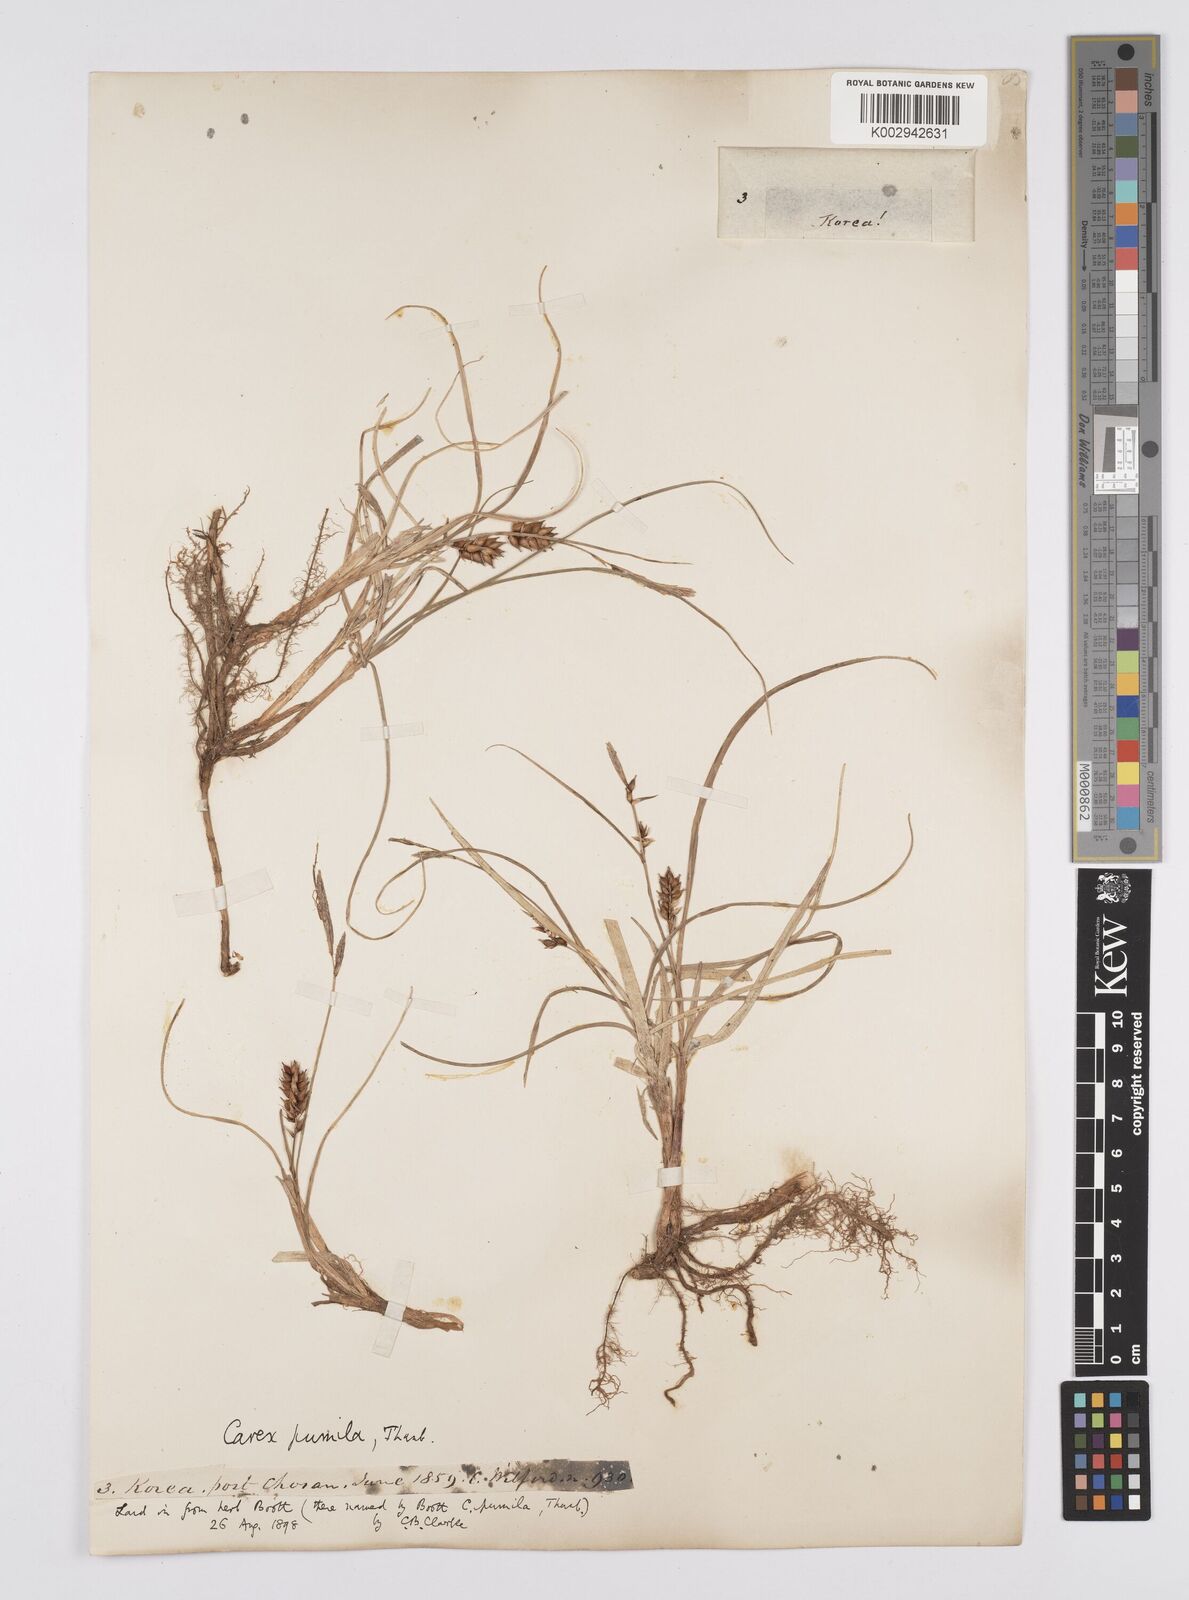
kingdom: Plantae
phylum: Tracheophyta
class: Liliopsida
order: Poales
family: Cyperaceae
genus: Carex
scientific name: Carex pumila
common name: Dwarf sedge
